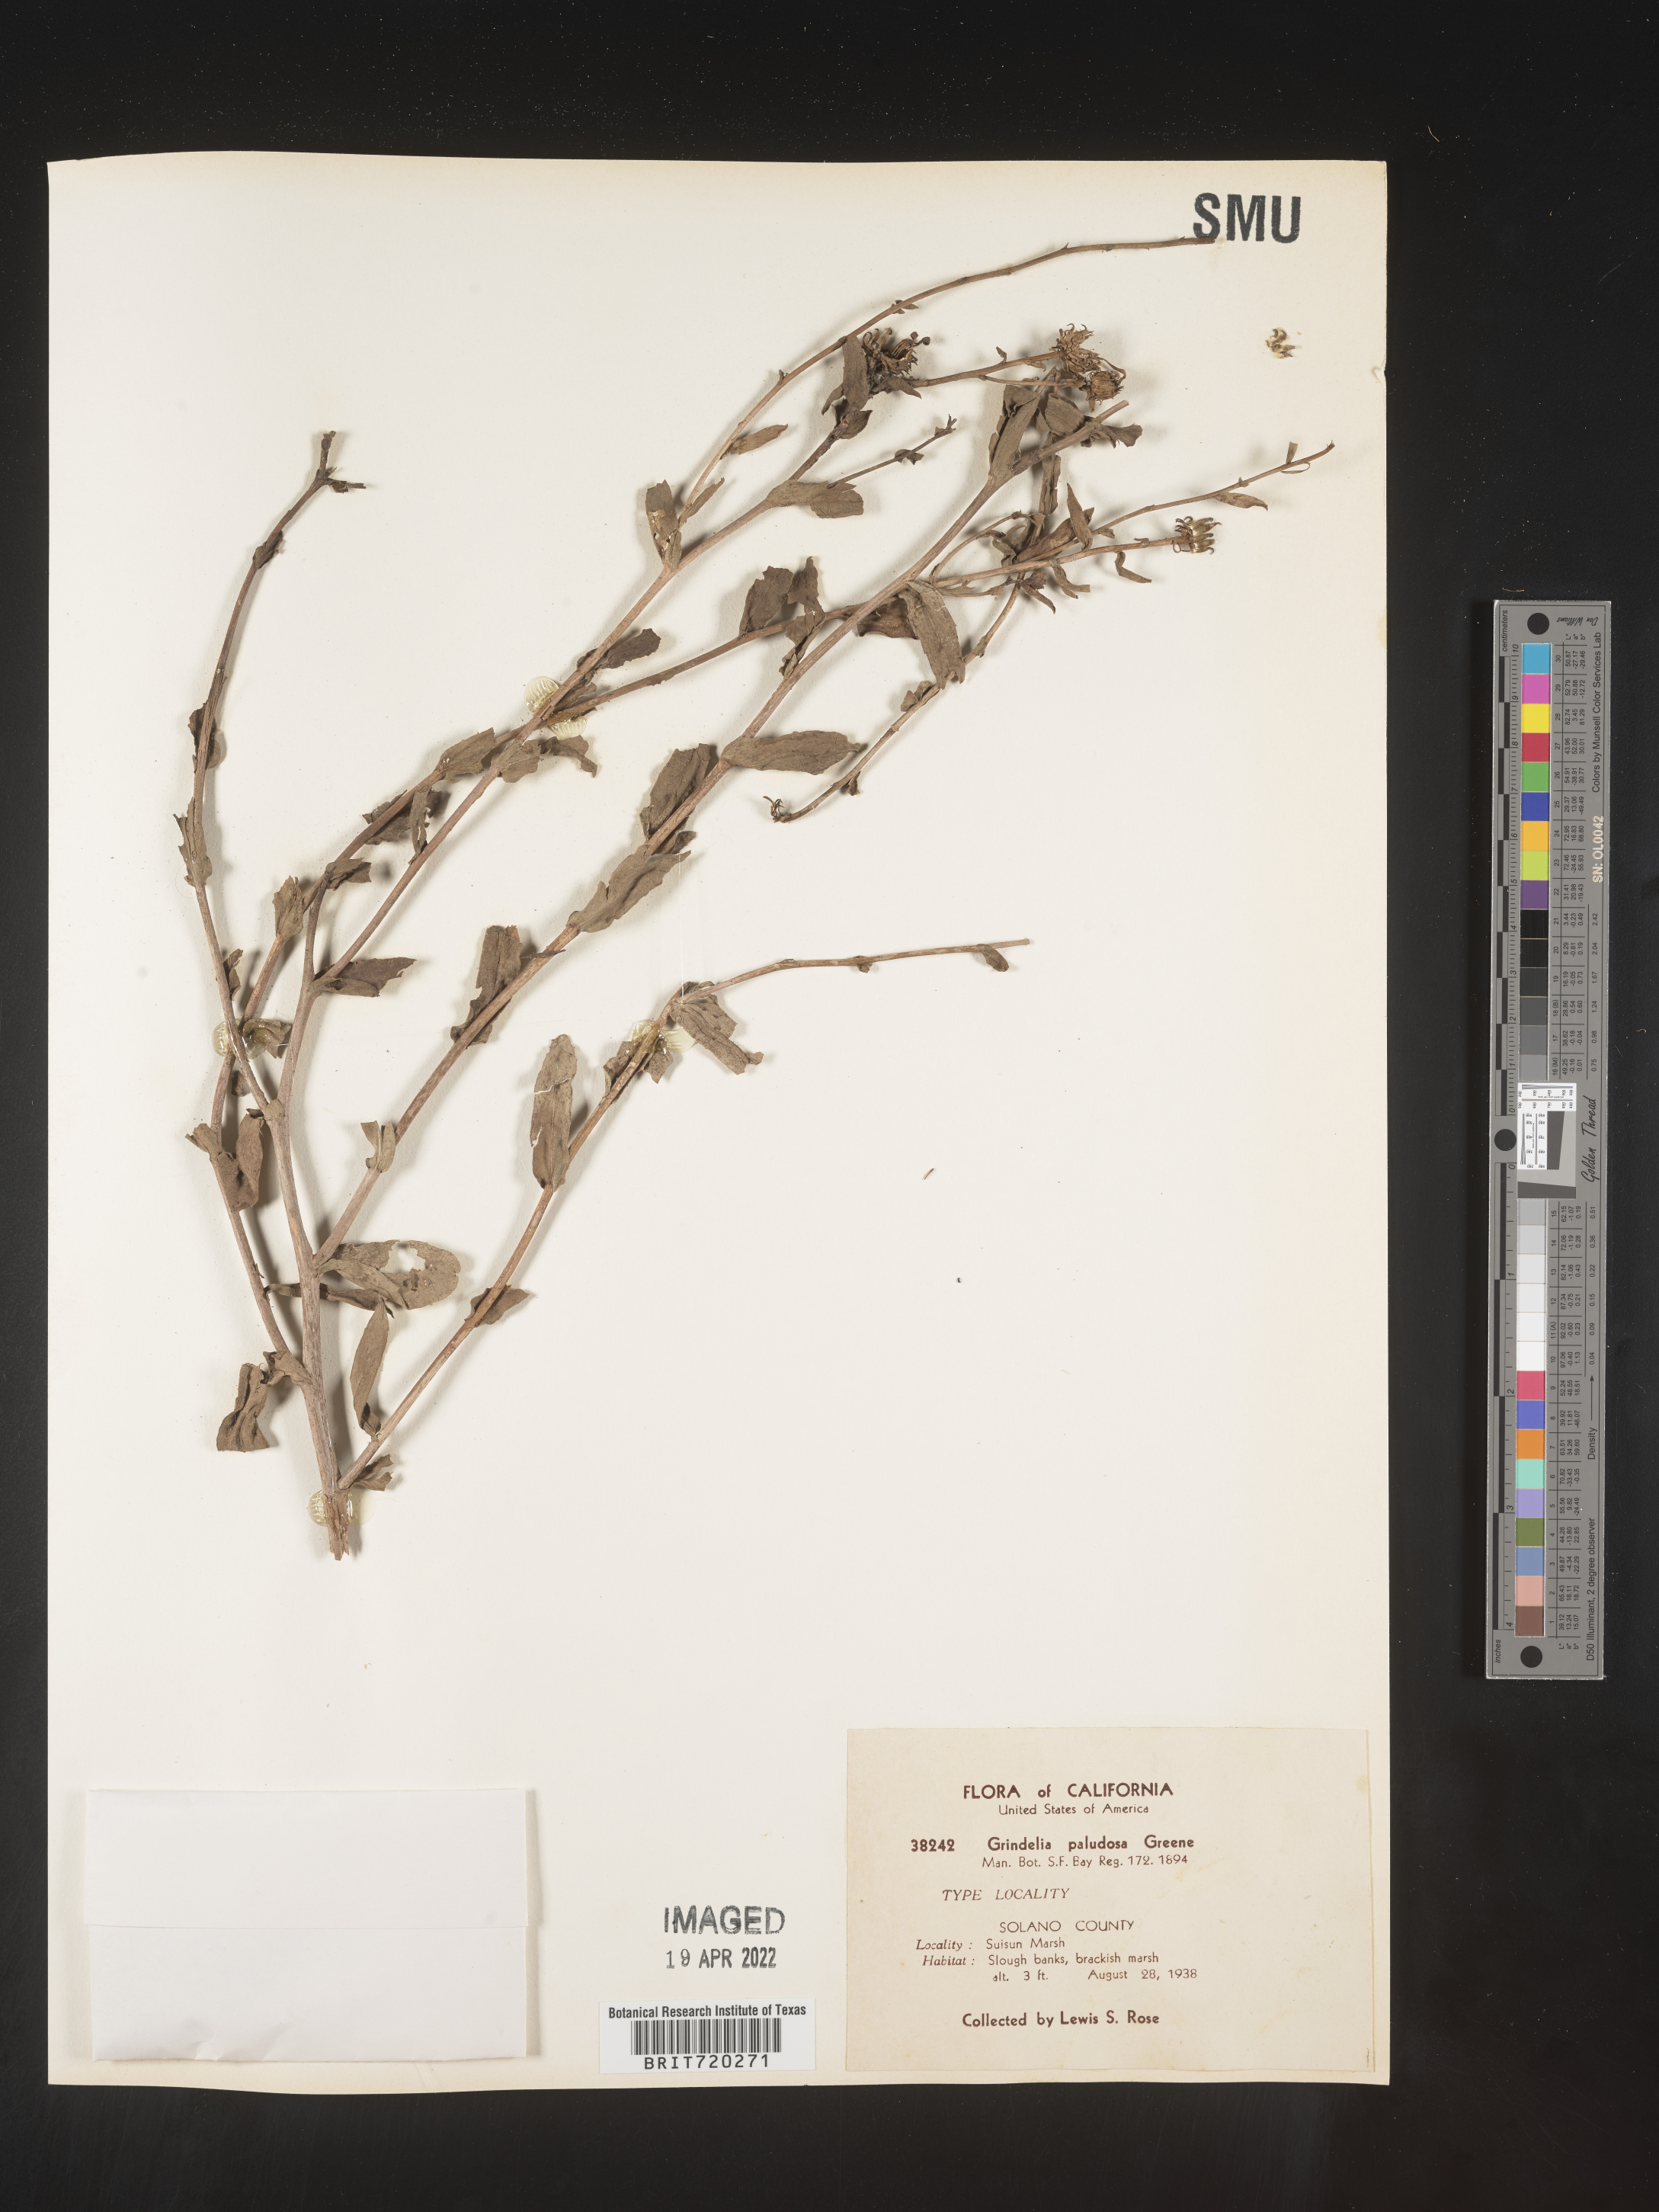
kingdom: Plantae
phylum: Tracheophyta
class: Magnoliopsida
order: Asterales
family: Asteraceae
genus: Grindelia
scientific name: Grindelia
